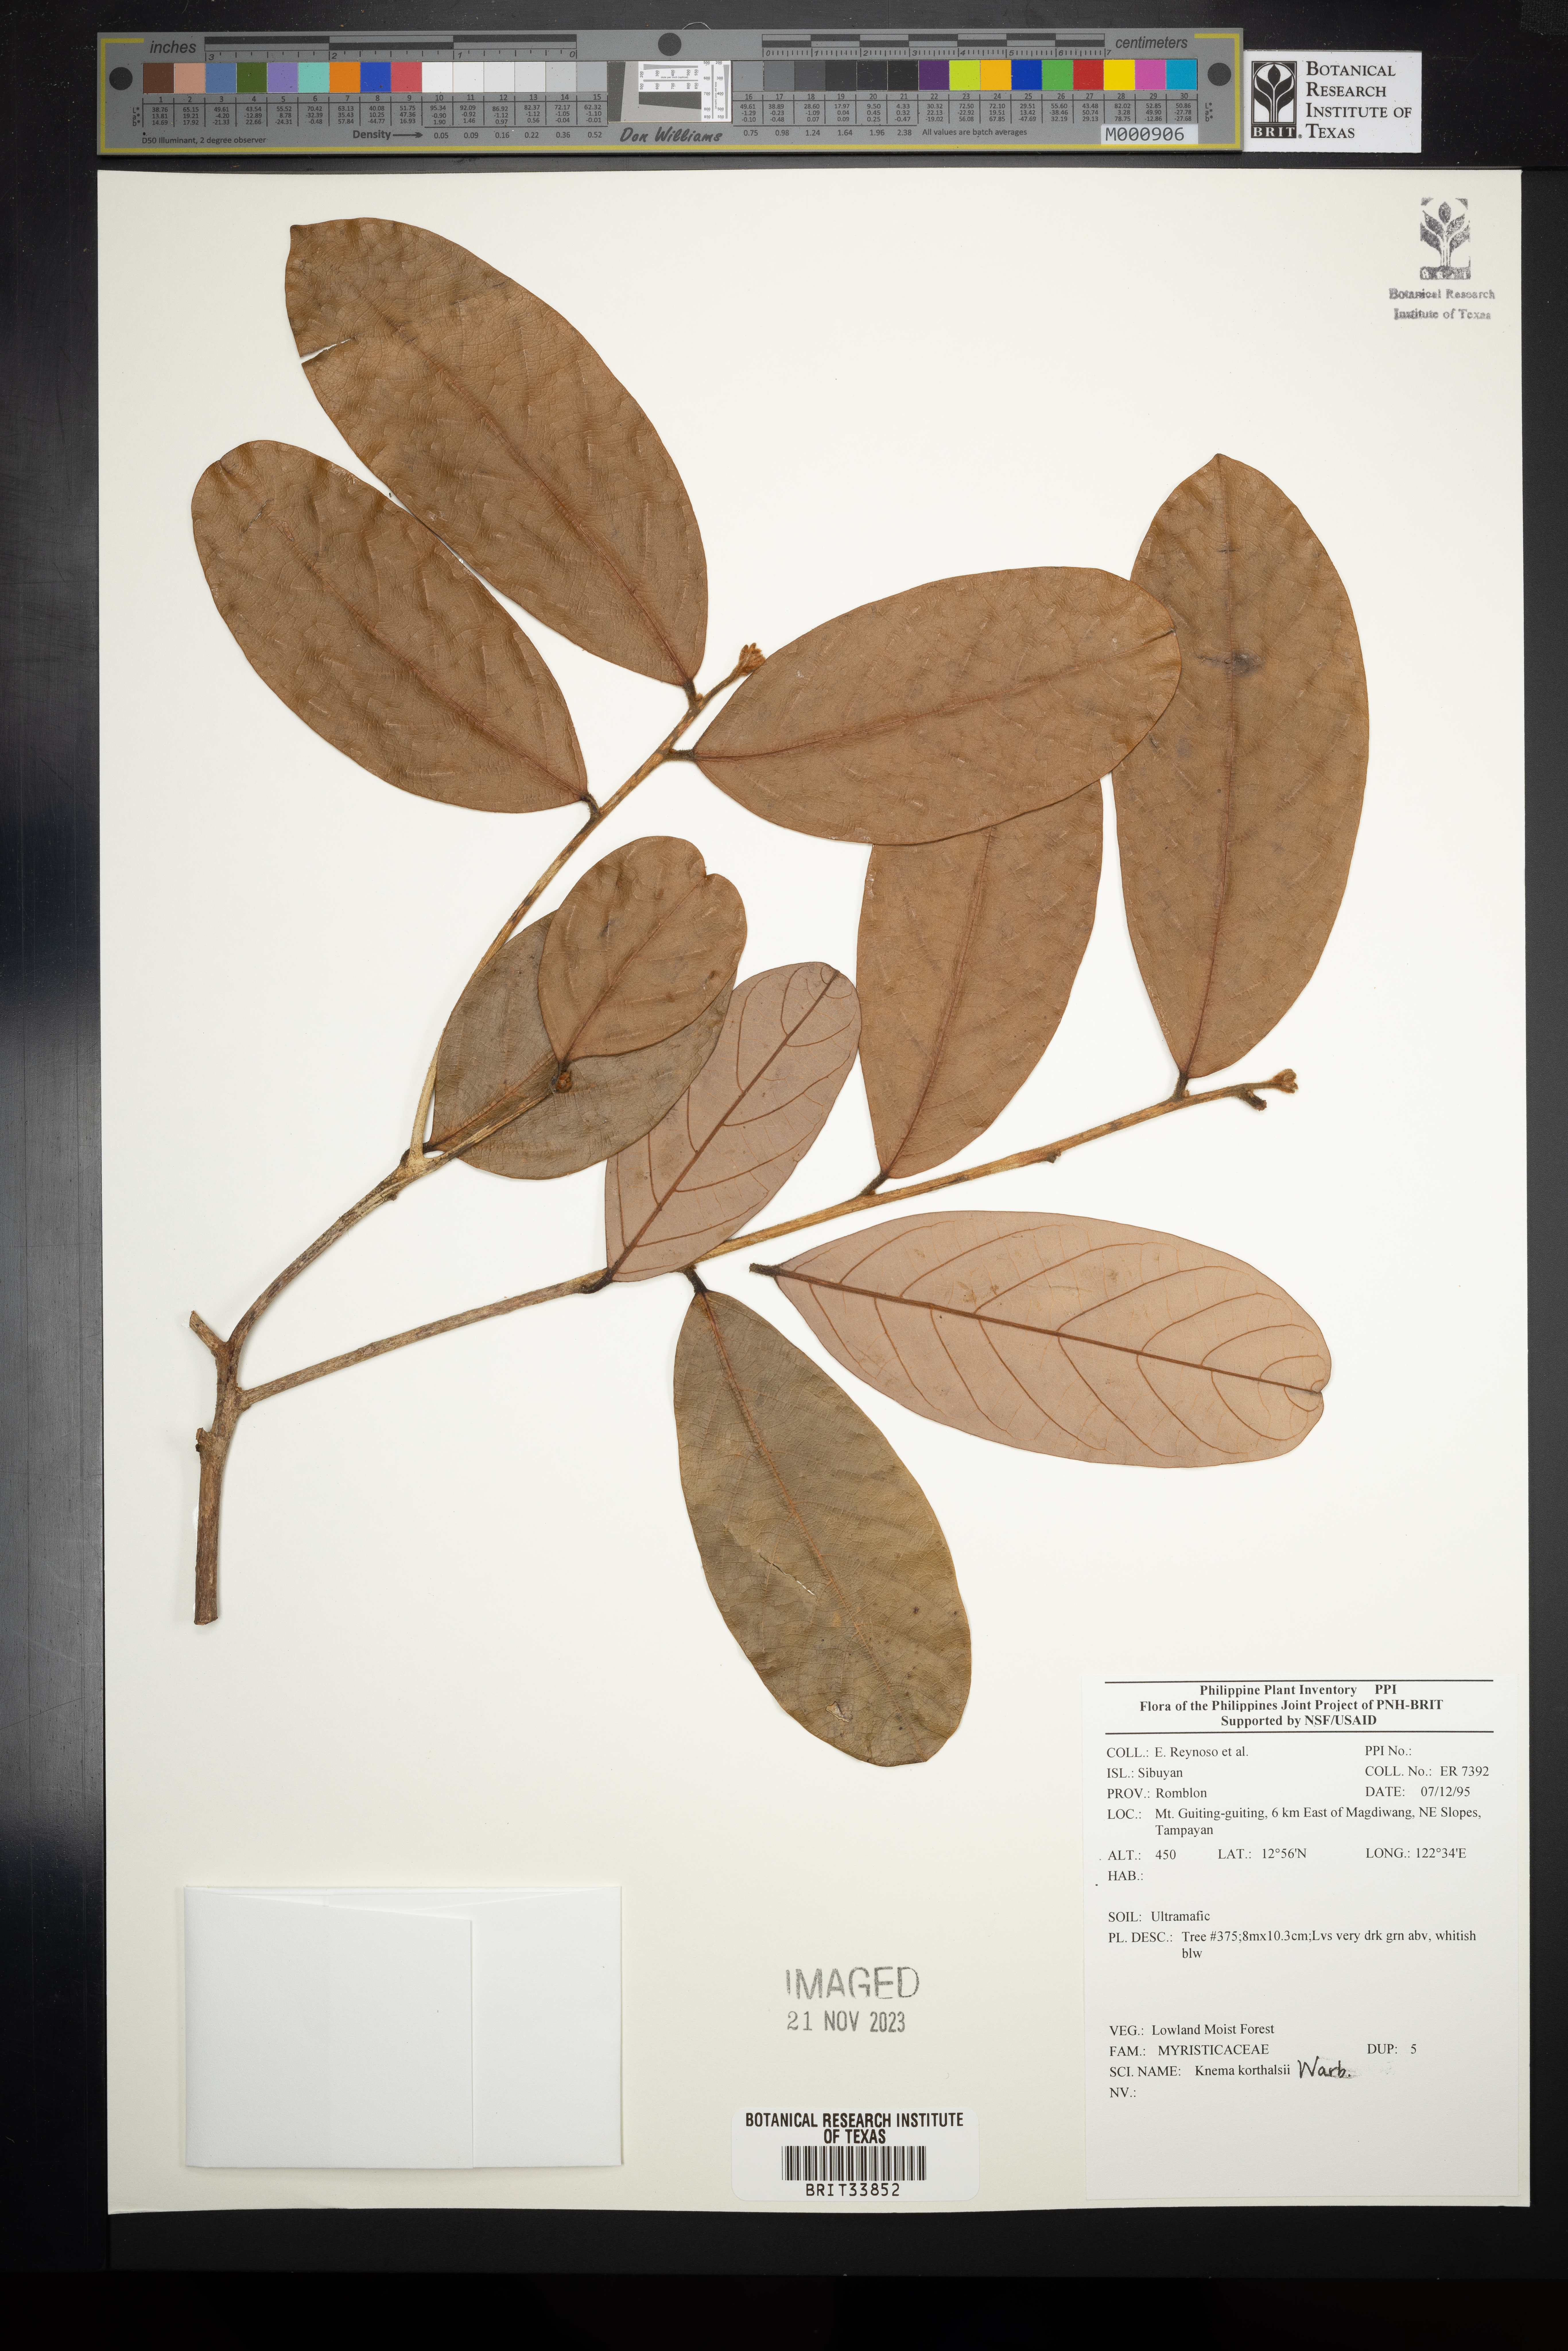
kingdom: Plantae
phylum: Tracheophyta
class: Magnoliopsida
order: Magnoliales
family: Myristicaceae
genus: Knema
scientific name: Knema
